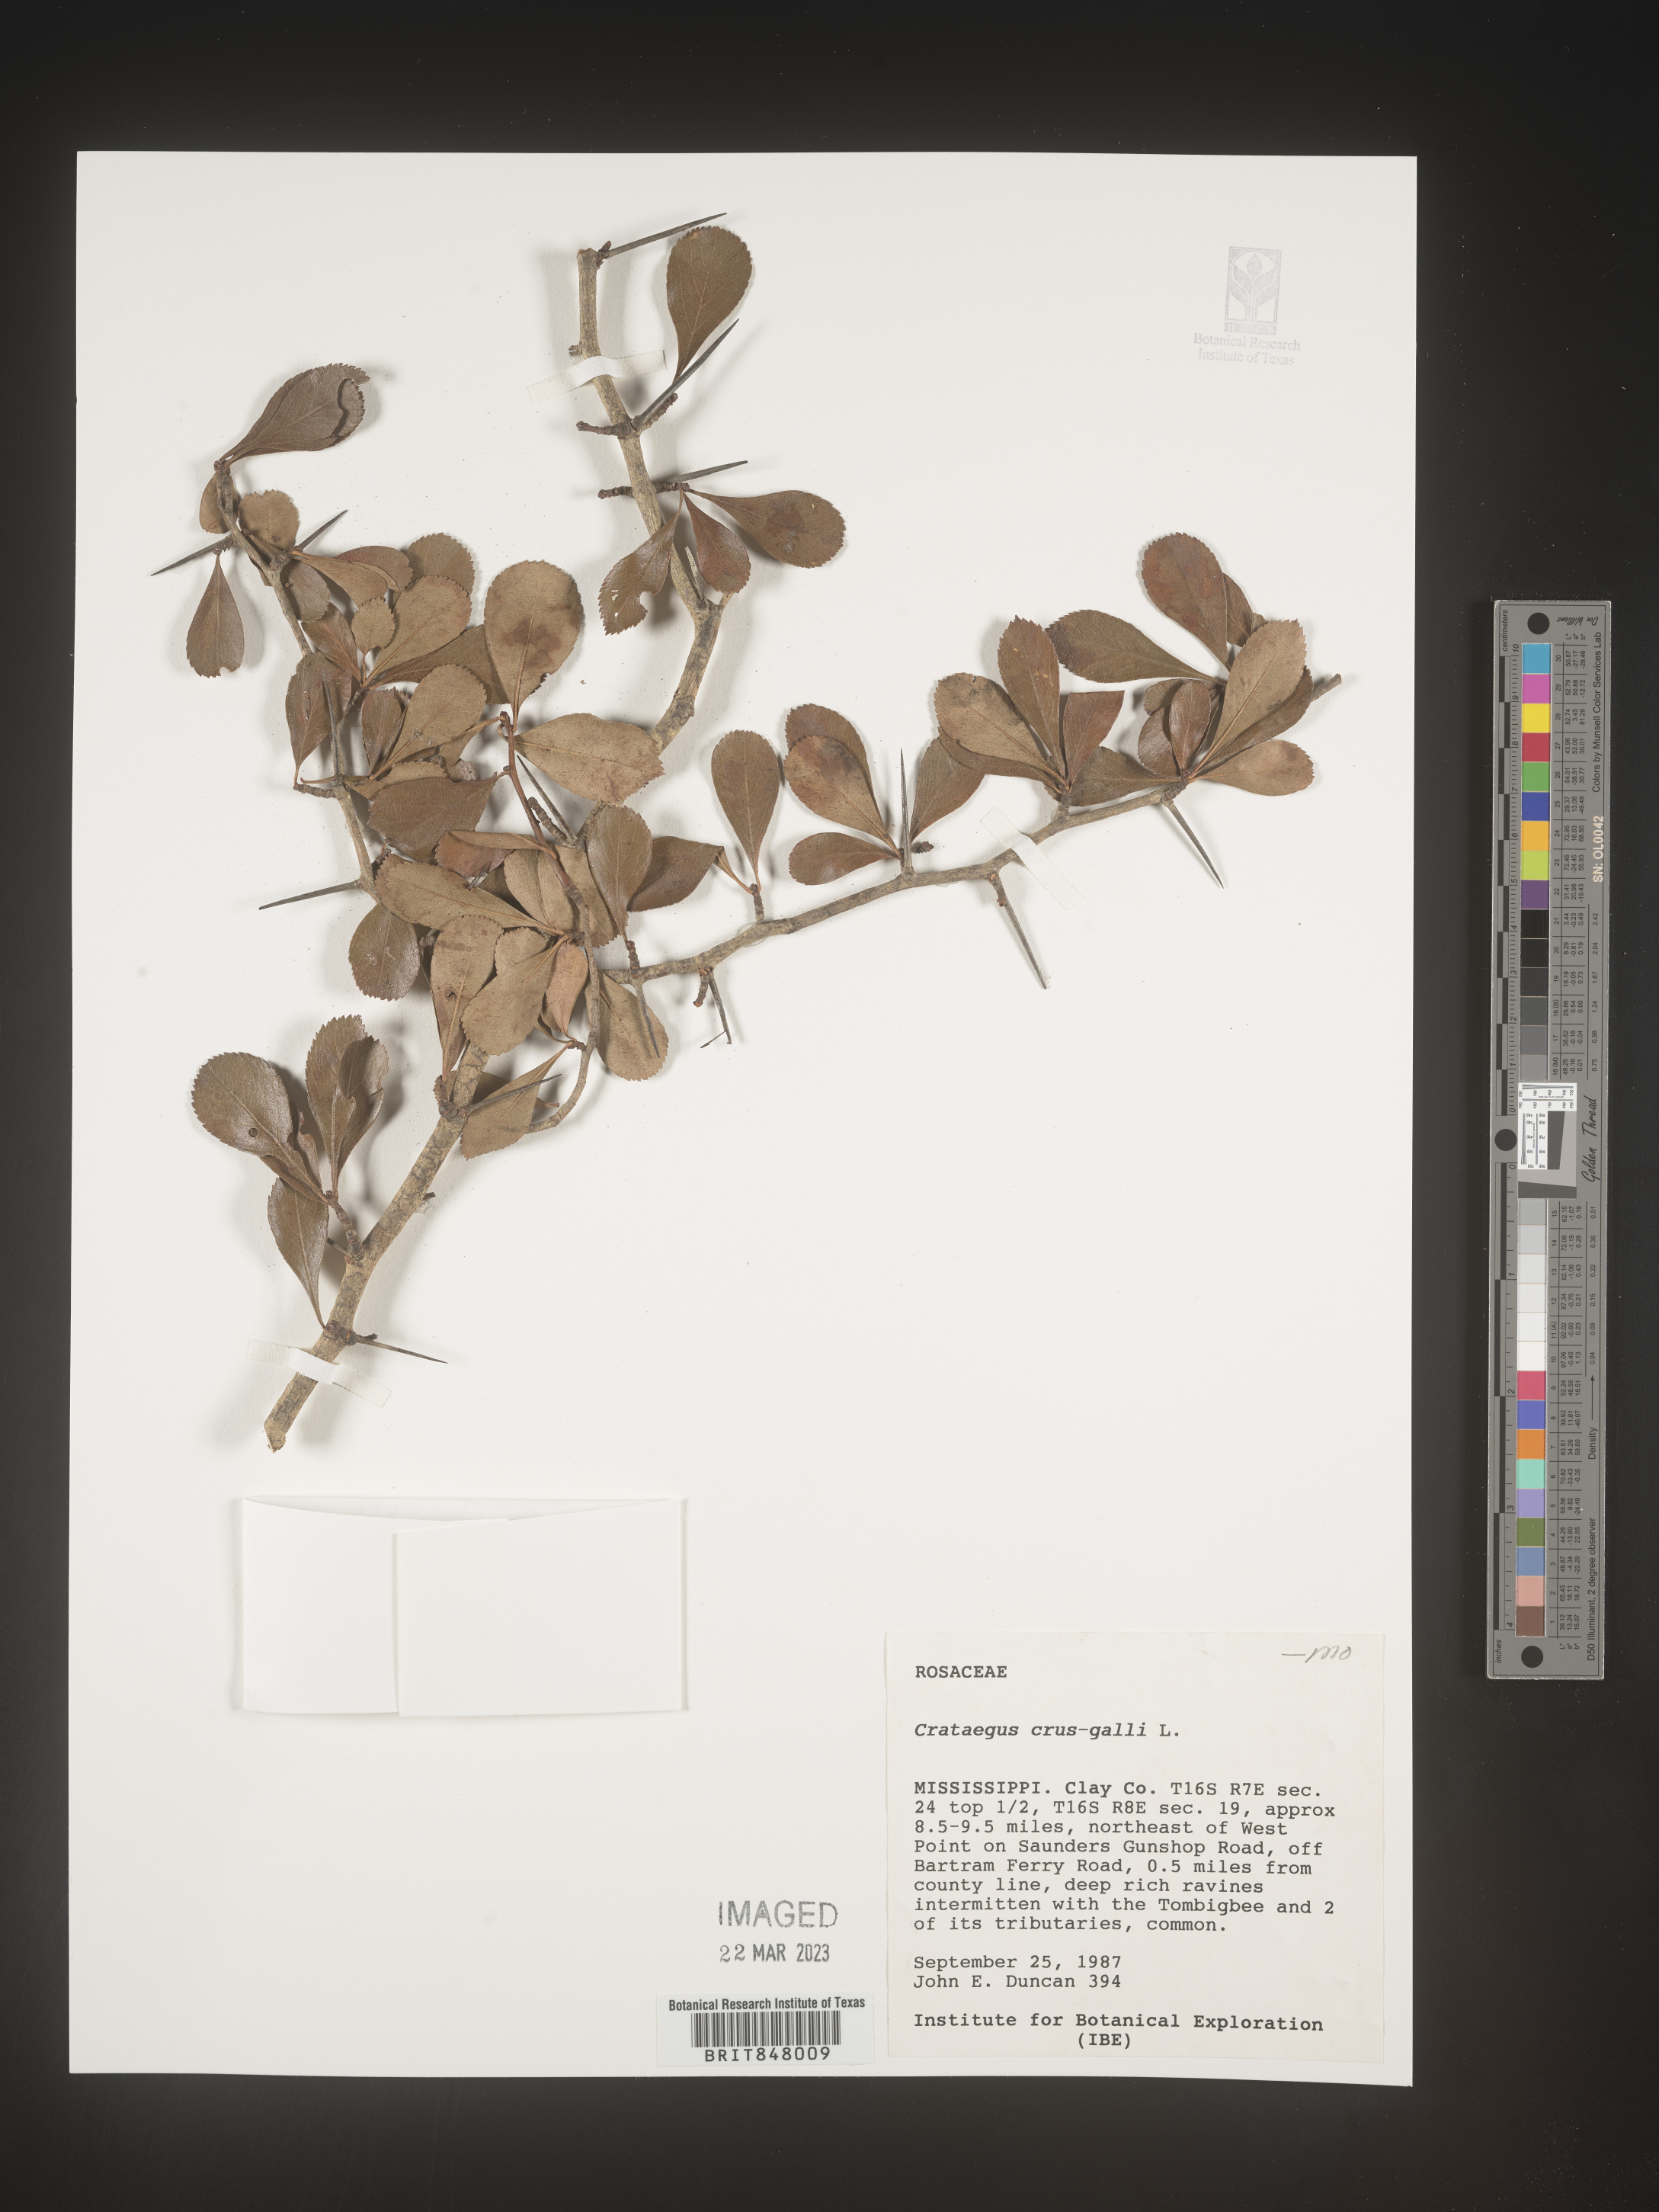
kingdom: Plantae
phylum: Tracheophyta
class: Magnoliopsida
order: Rosales
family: Rosaceae
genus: Crataegus
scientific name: Crataegus crus-galli
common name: Cockspurthorn
